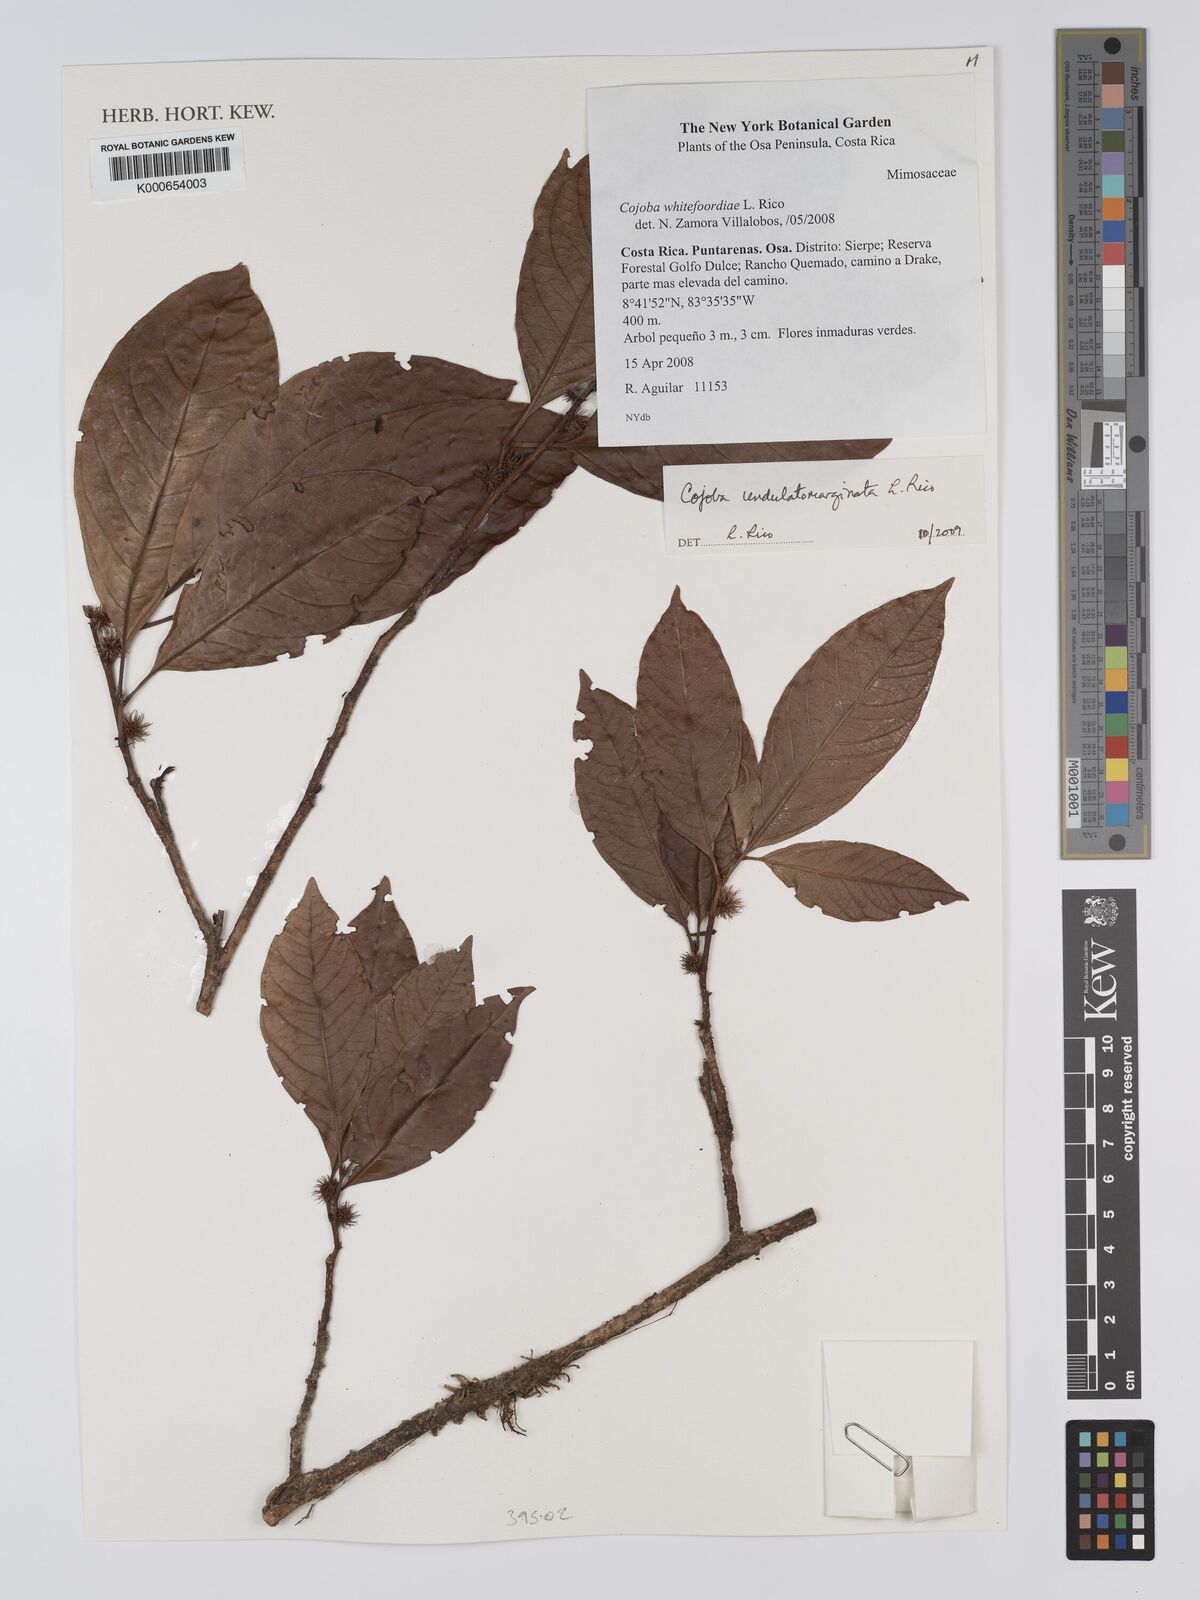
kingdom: Plantae
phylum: Tracheophyta
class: Magnoliopsida
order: Fabales
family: Fabaceae
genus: Cojoba
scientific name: Cojoba rufescens
